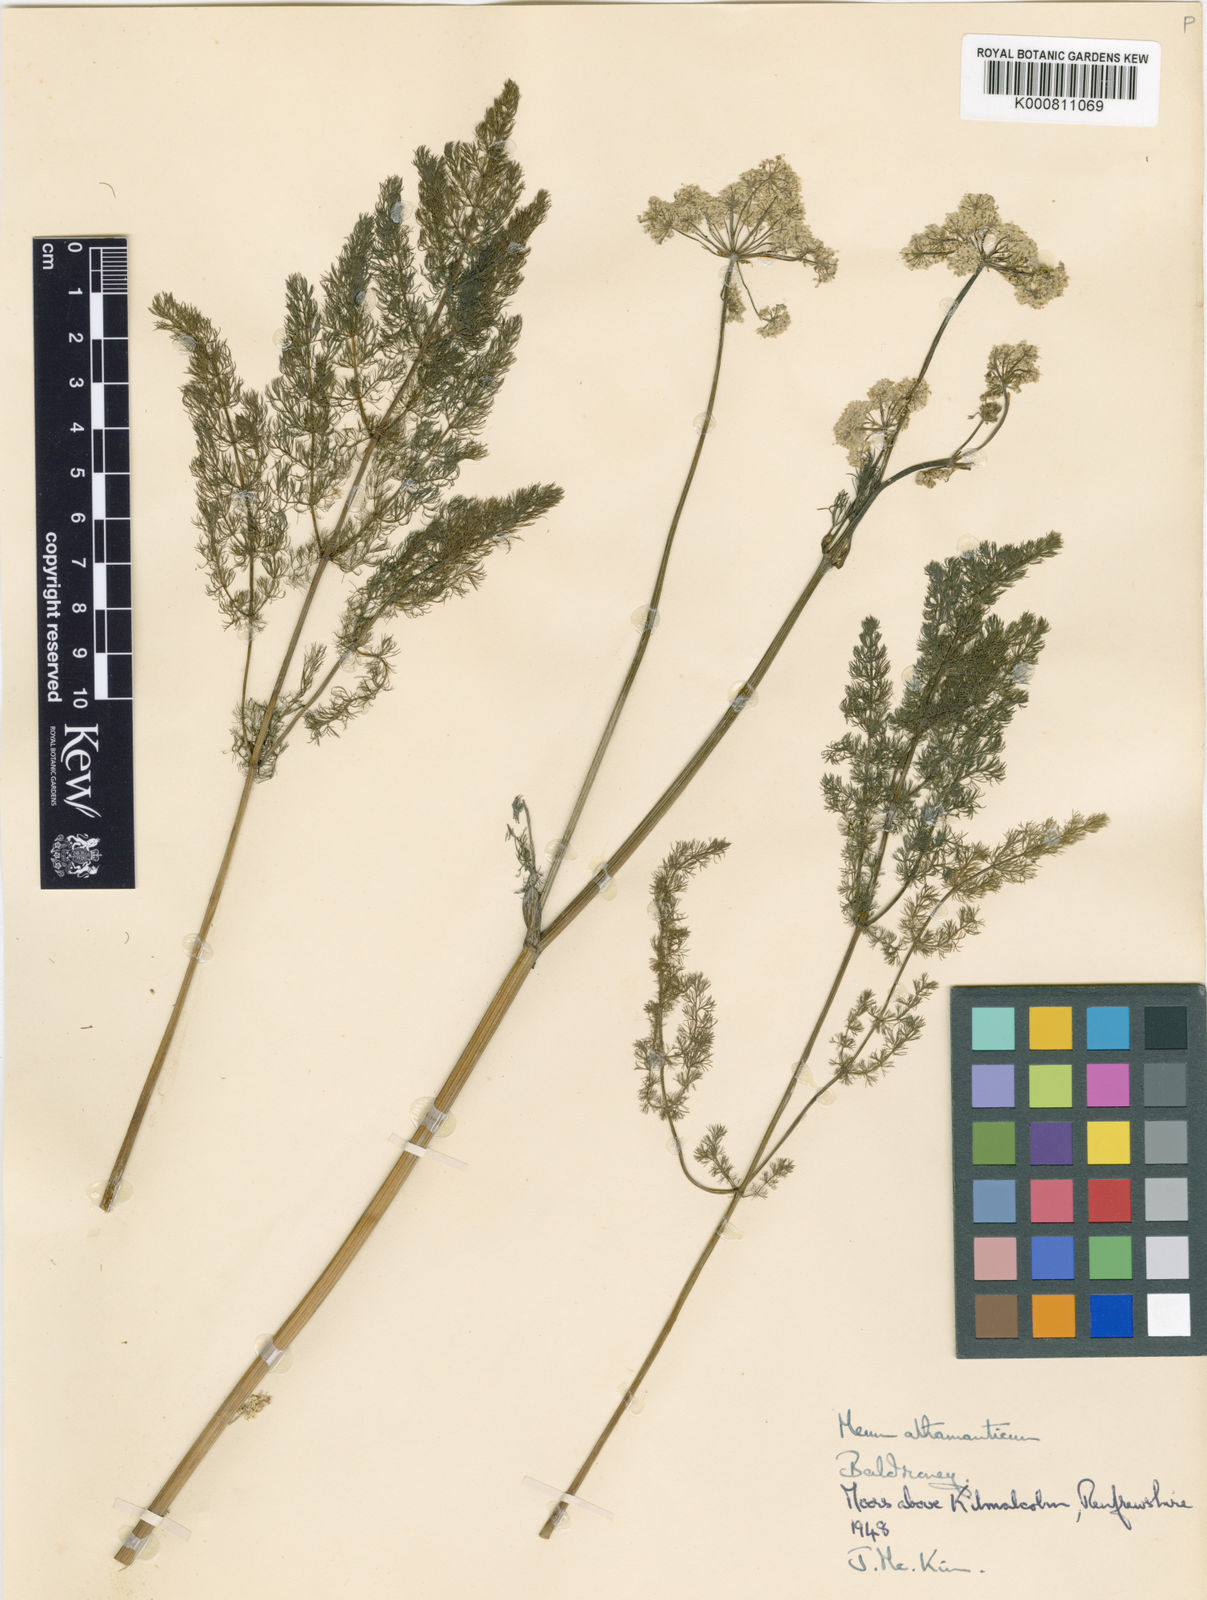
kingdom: Plantae
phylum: Tracheophyta
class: Magnoliopsida
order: Apiales
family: Apiaceae
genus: Meum
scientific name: Meum athamanticum
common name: Spignel
